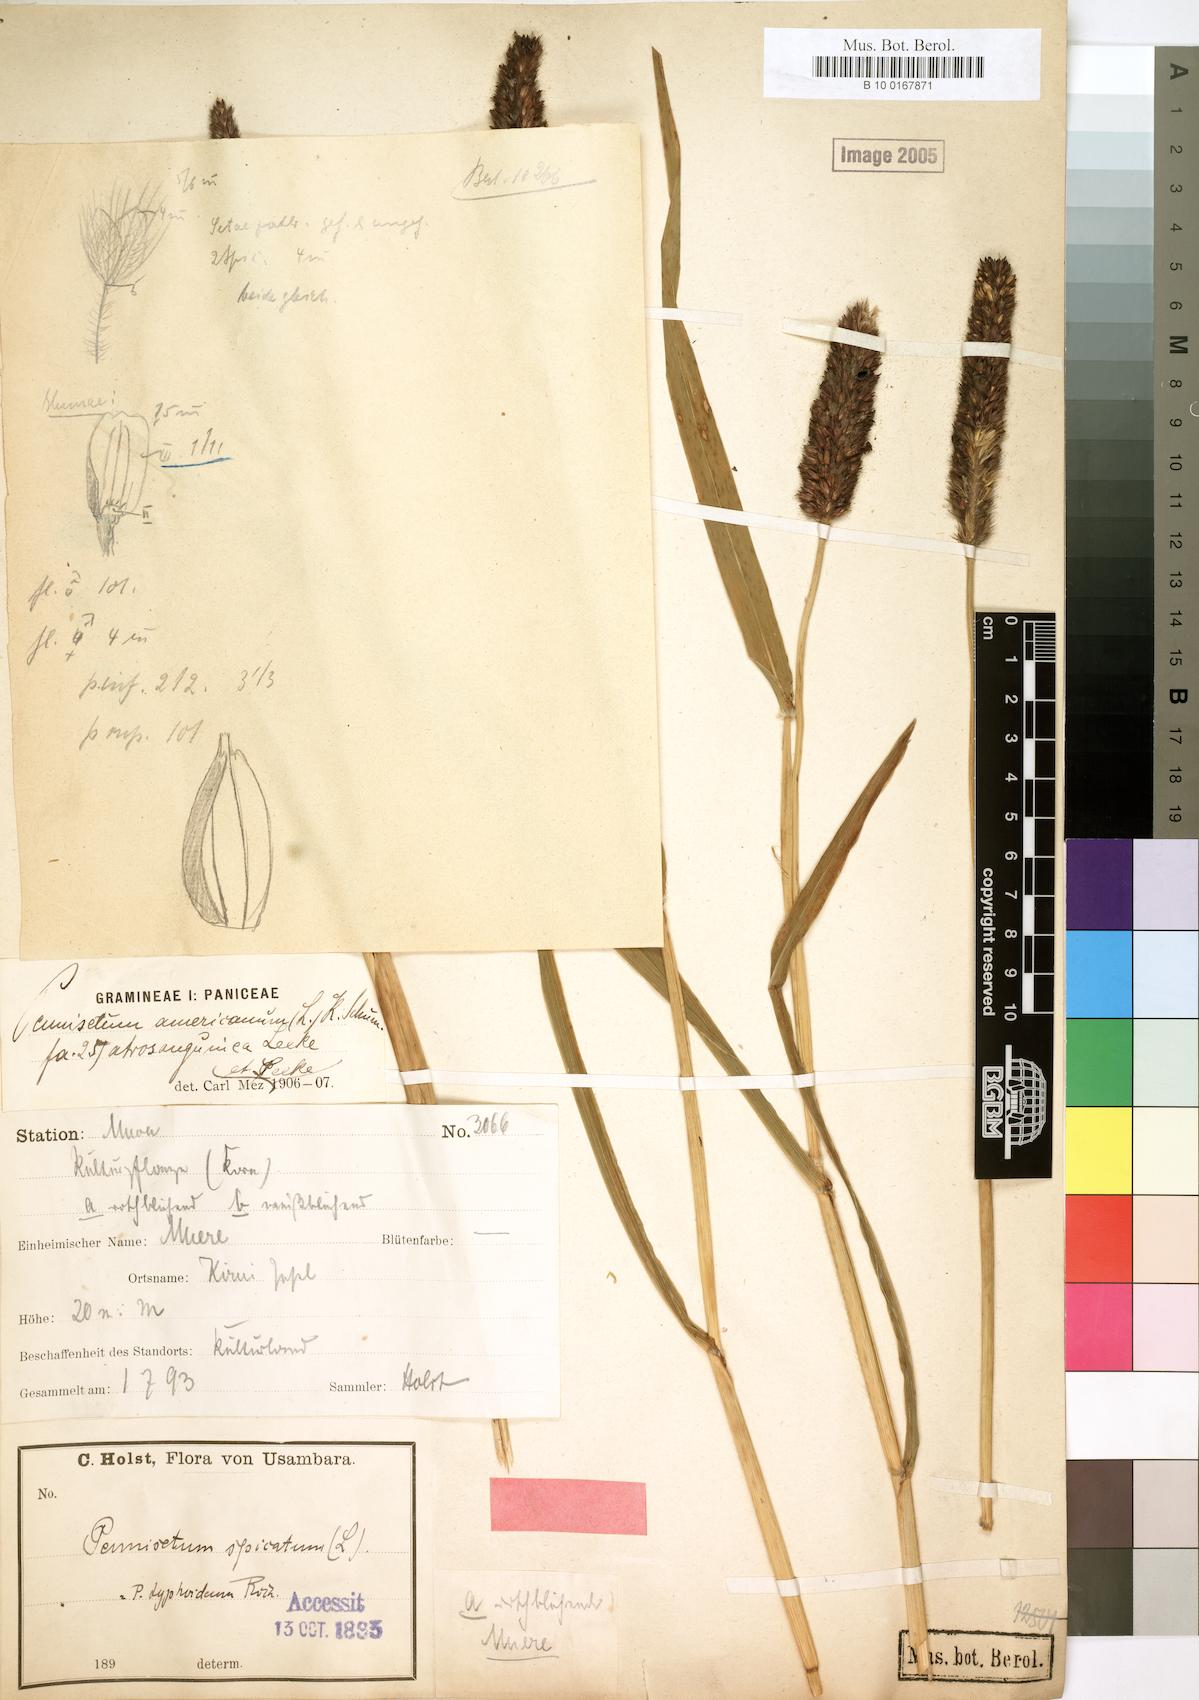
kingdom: Plantae
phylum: Tracheophyta
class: Liliopsida
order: Poales
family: Poaceae
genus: Cenchrus
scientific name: Cenchrus americanus
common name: Pearl millet
